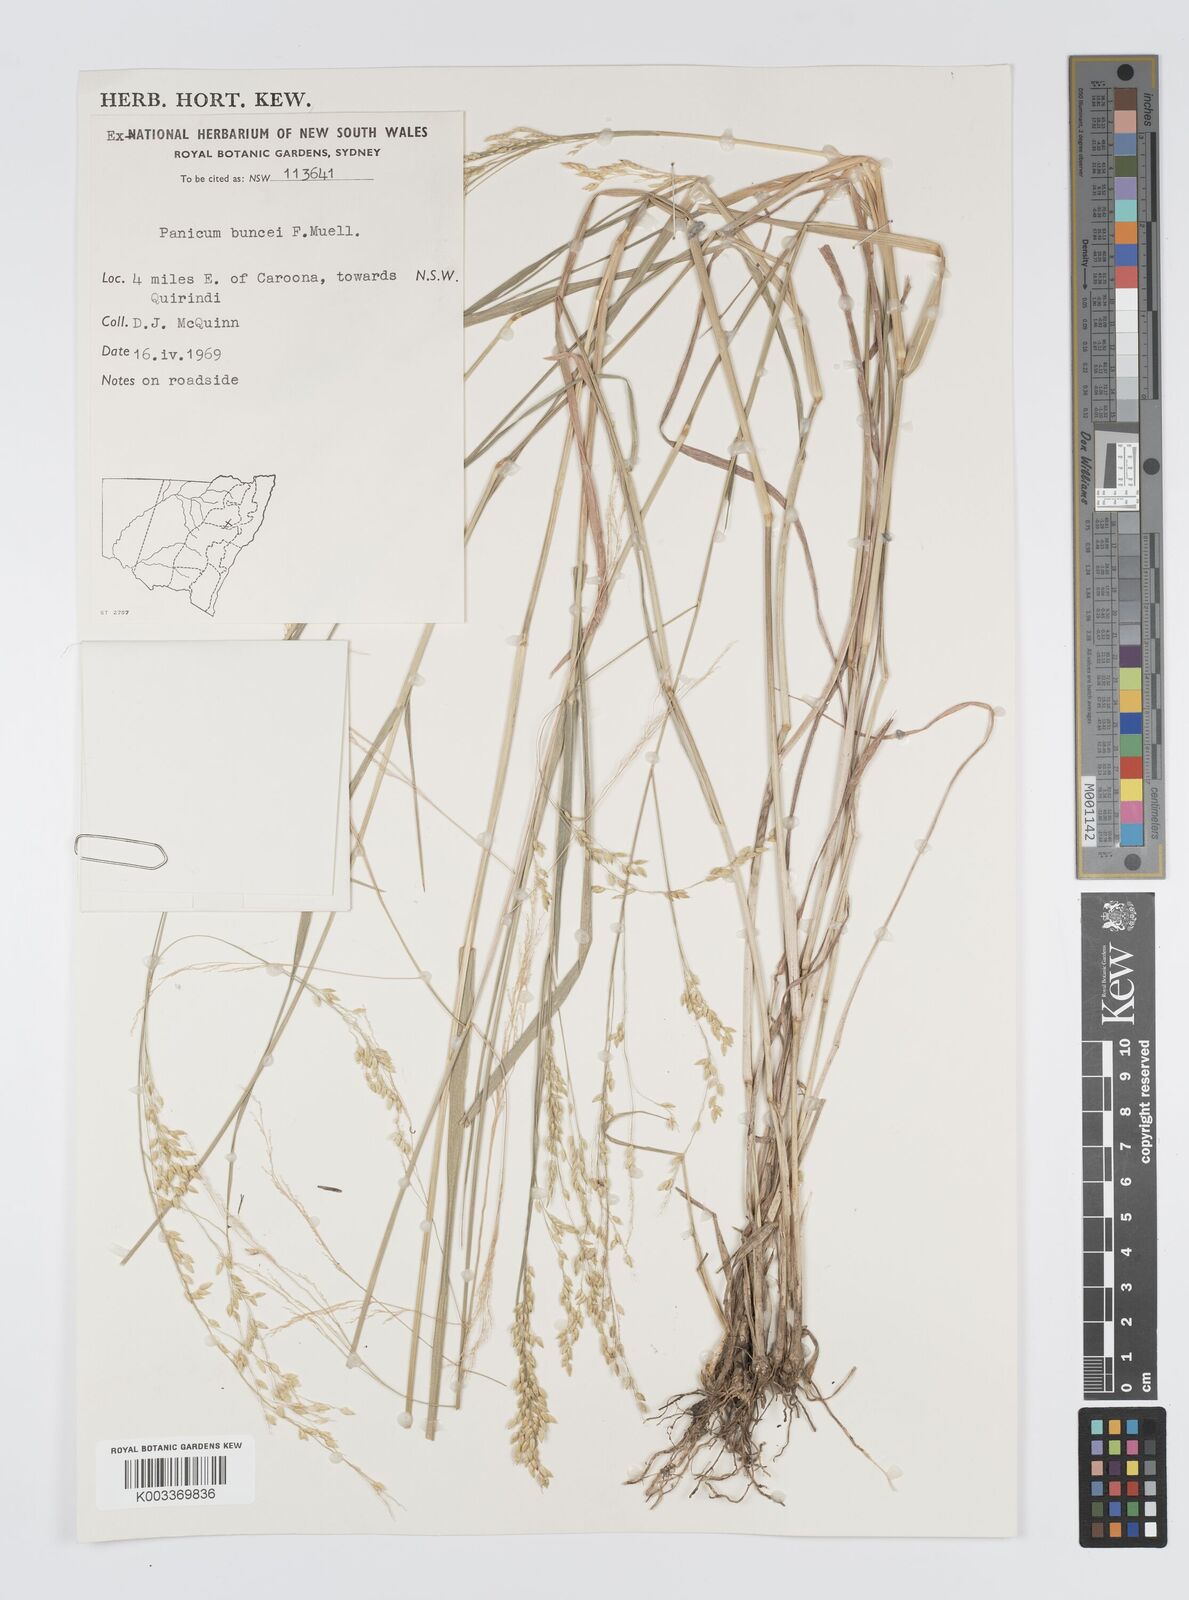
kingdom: Plantae
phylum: Tracheophyta
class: Liliopsida
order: Poales
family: Poaceae
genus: Panicum
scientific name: Panicum buncei
